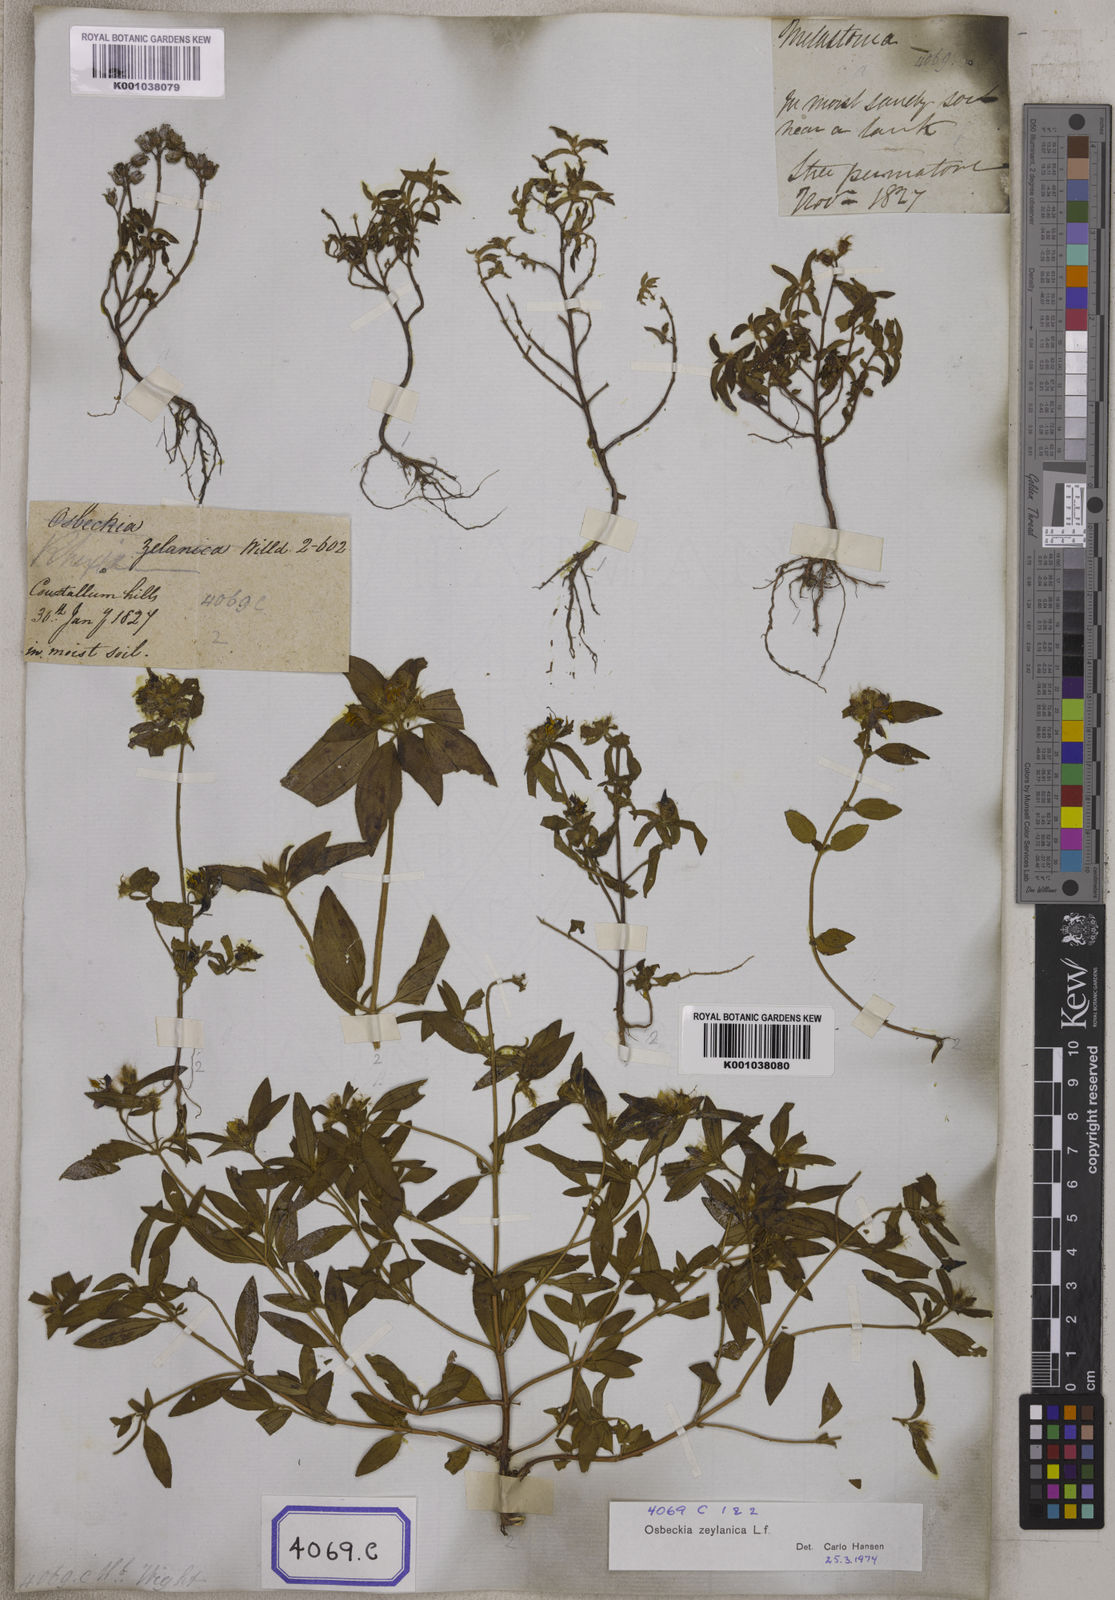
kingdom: Plantae
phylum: Tracheophyta
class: Magnoliopsida
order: Myrtales
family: Melastomataceae
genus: Osbeckia
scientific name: Osbeckia zeylanica
